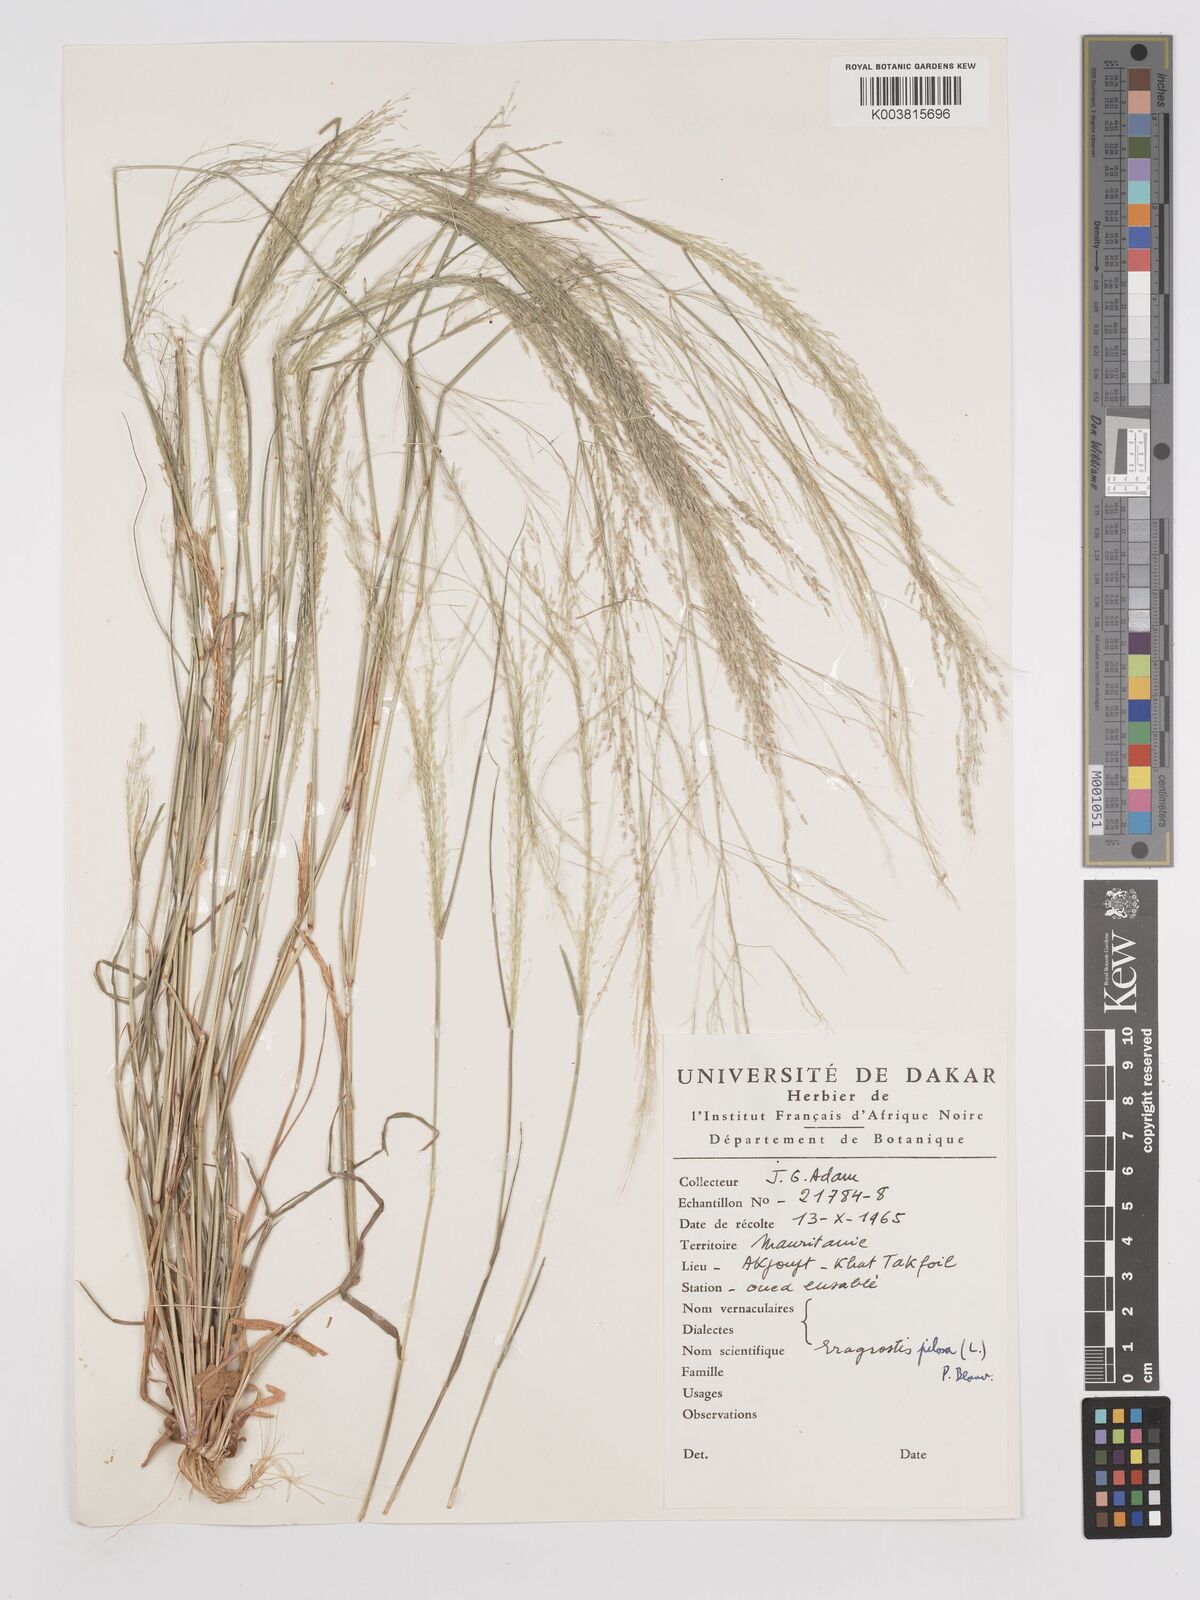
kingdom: Plantae
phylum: Tracheophyta
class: Liliopsida
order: Poales
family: Poaceae
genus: Eragrostis
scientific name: Eragrostis pilosa
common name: Indian lovegrass
